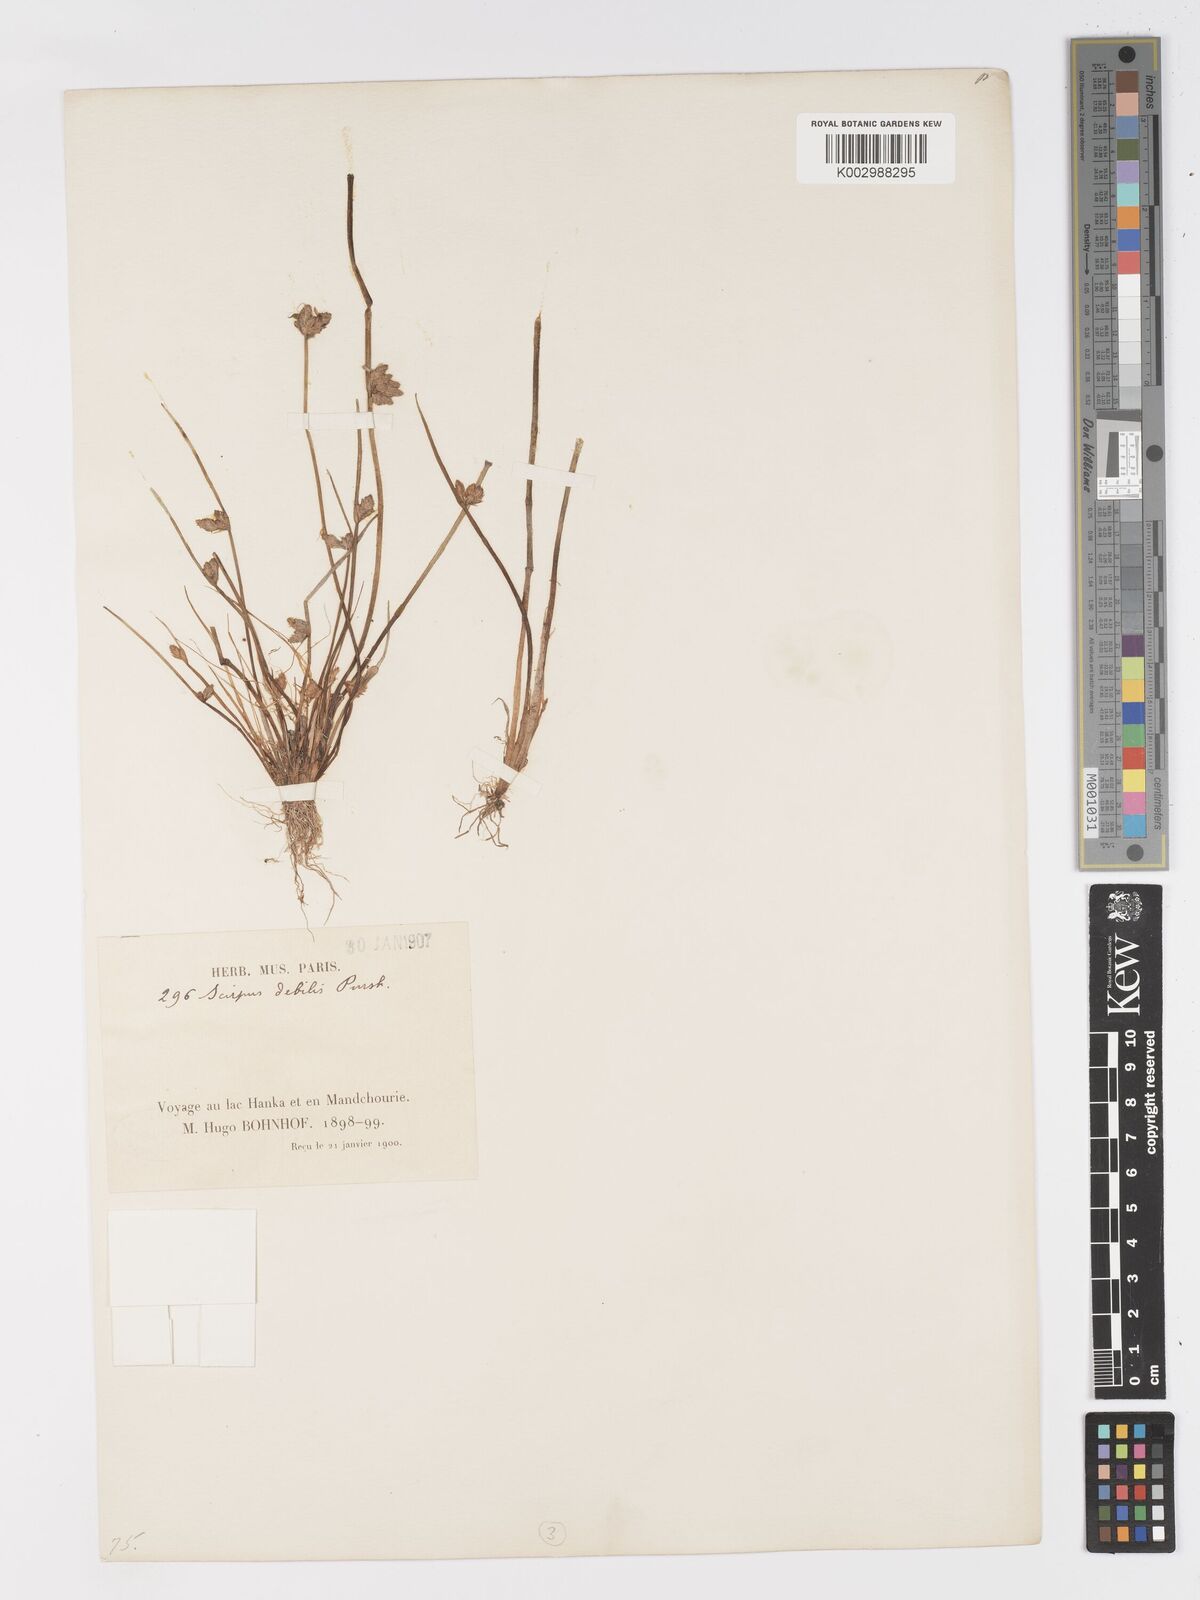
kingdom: Plantae
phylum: Tracheophyta
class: Liliopsida
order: Poales
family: Cyperaceae
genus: Schoenoplectiella
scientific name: Schoenoplectiella erecta
